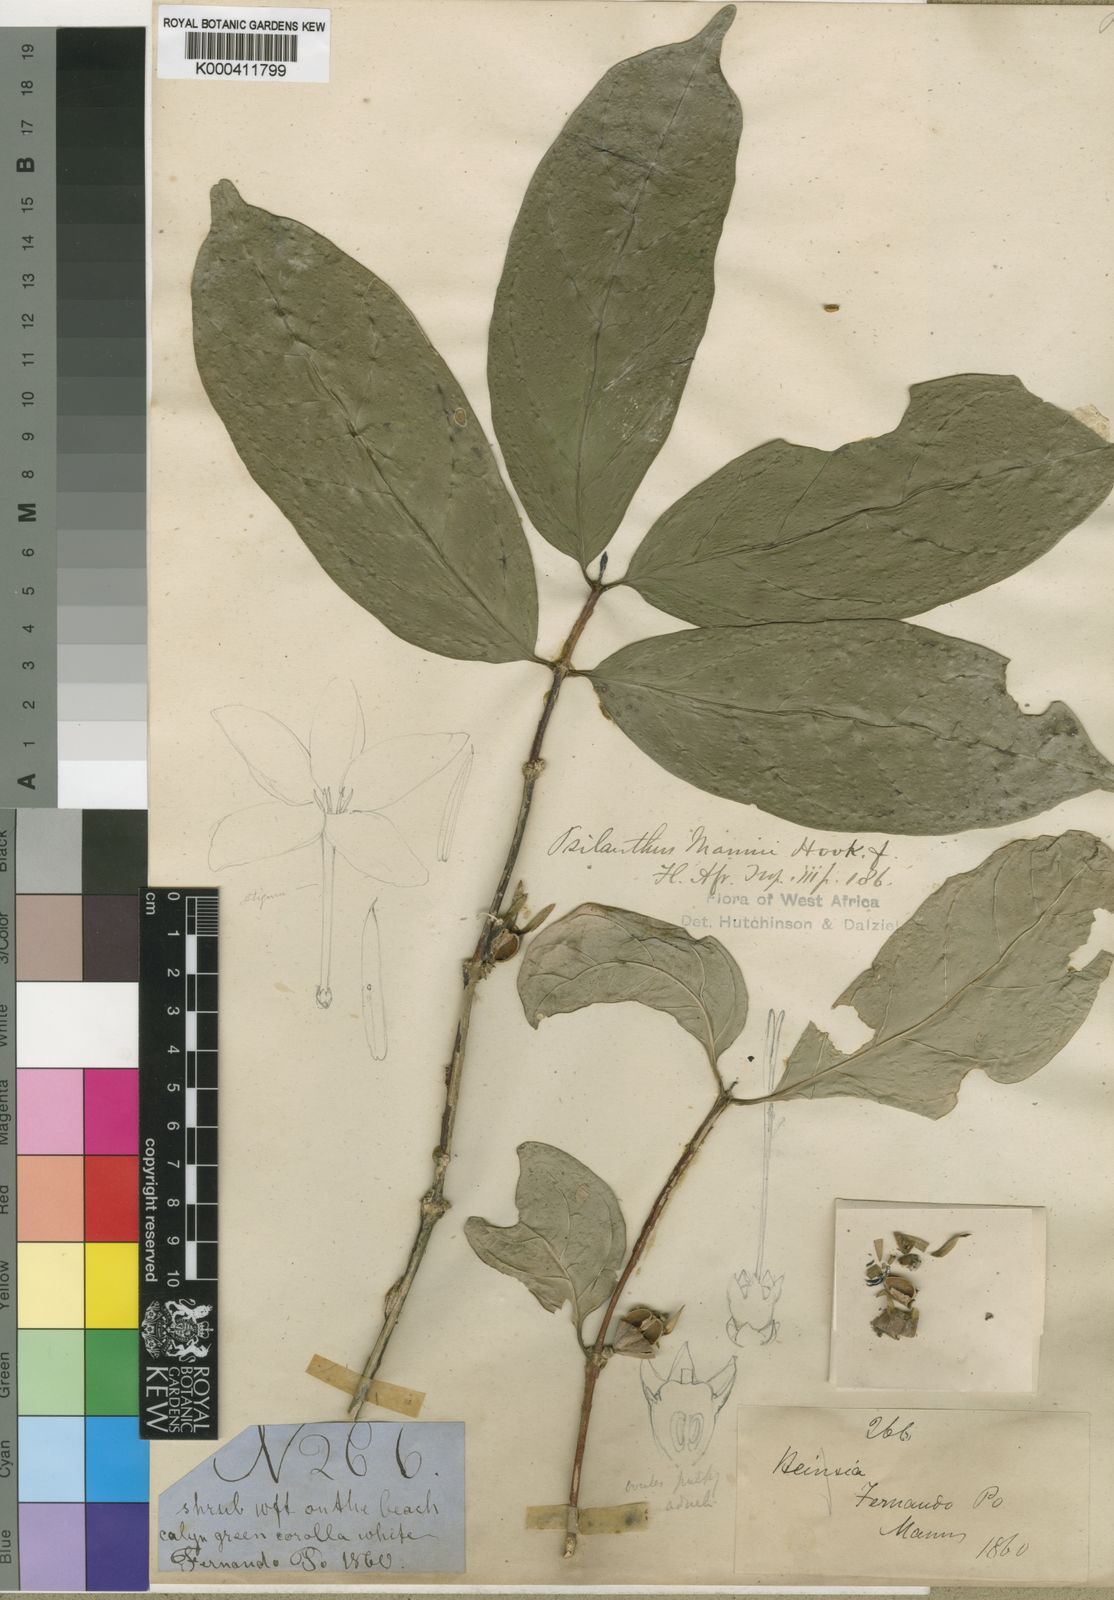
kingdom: Plantae
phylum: Tracheophyta
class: Magnoliopsida
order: Gentianales
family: Rubiaceae
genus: Coffea
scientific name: Coffea mannii
